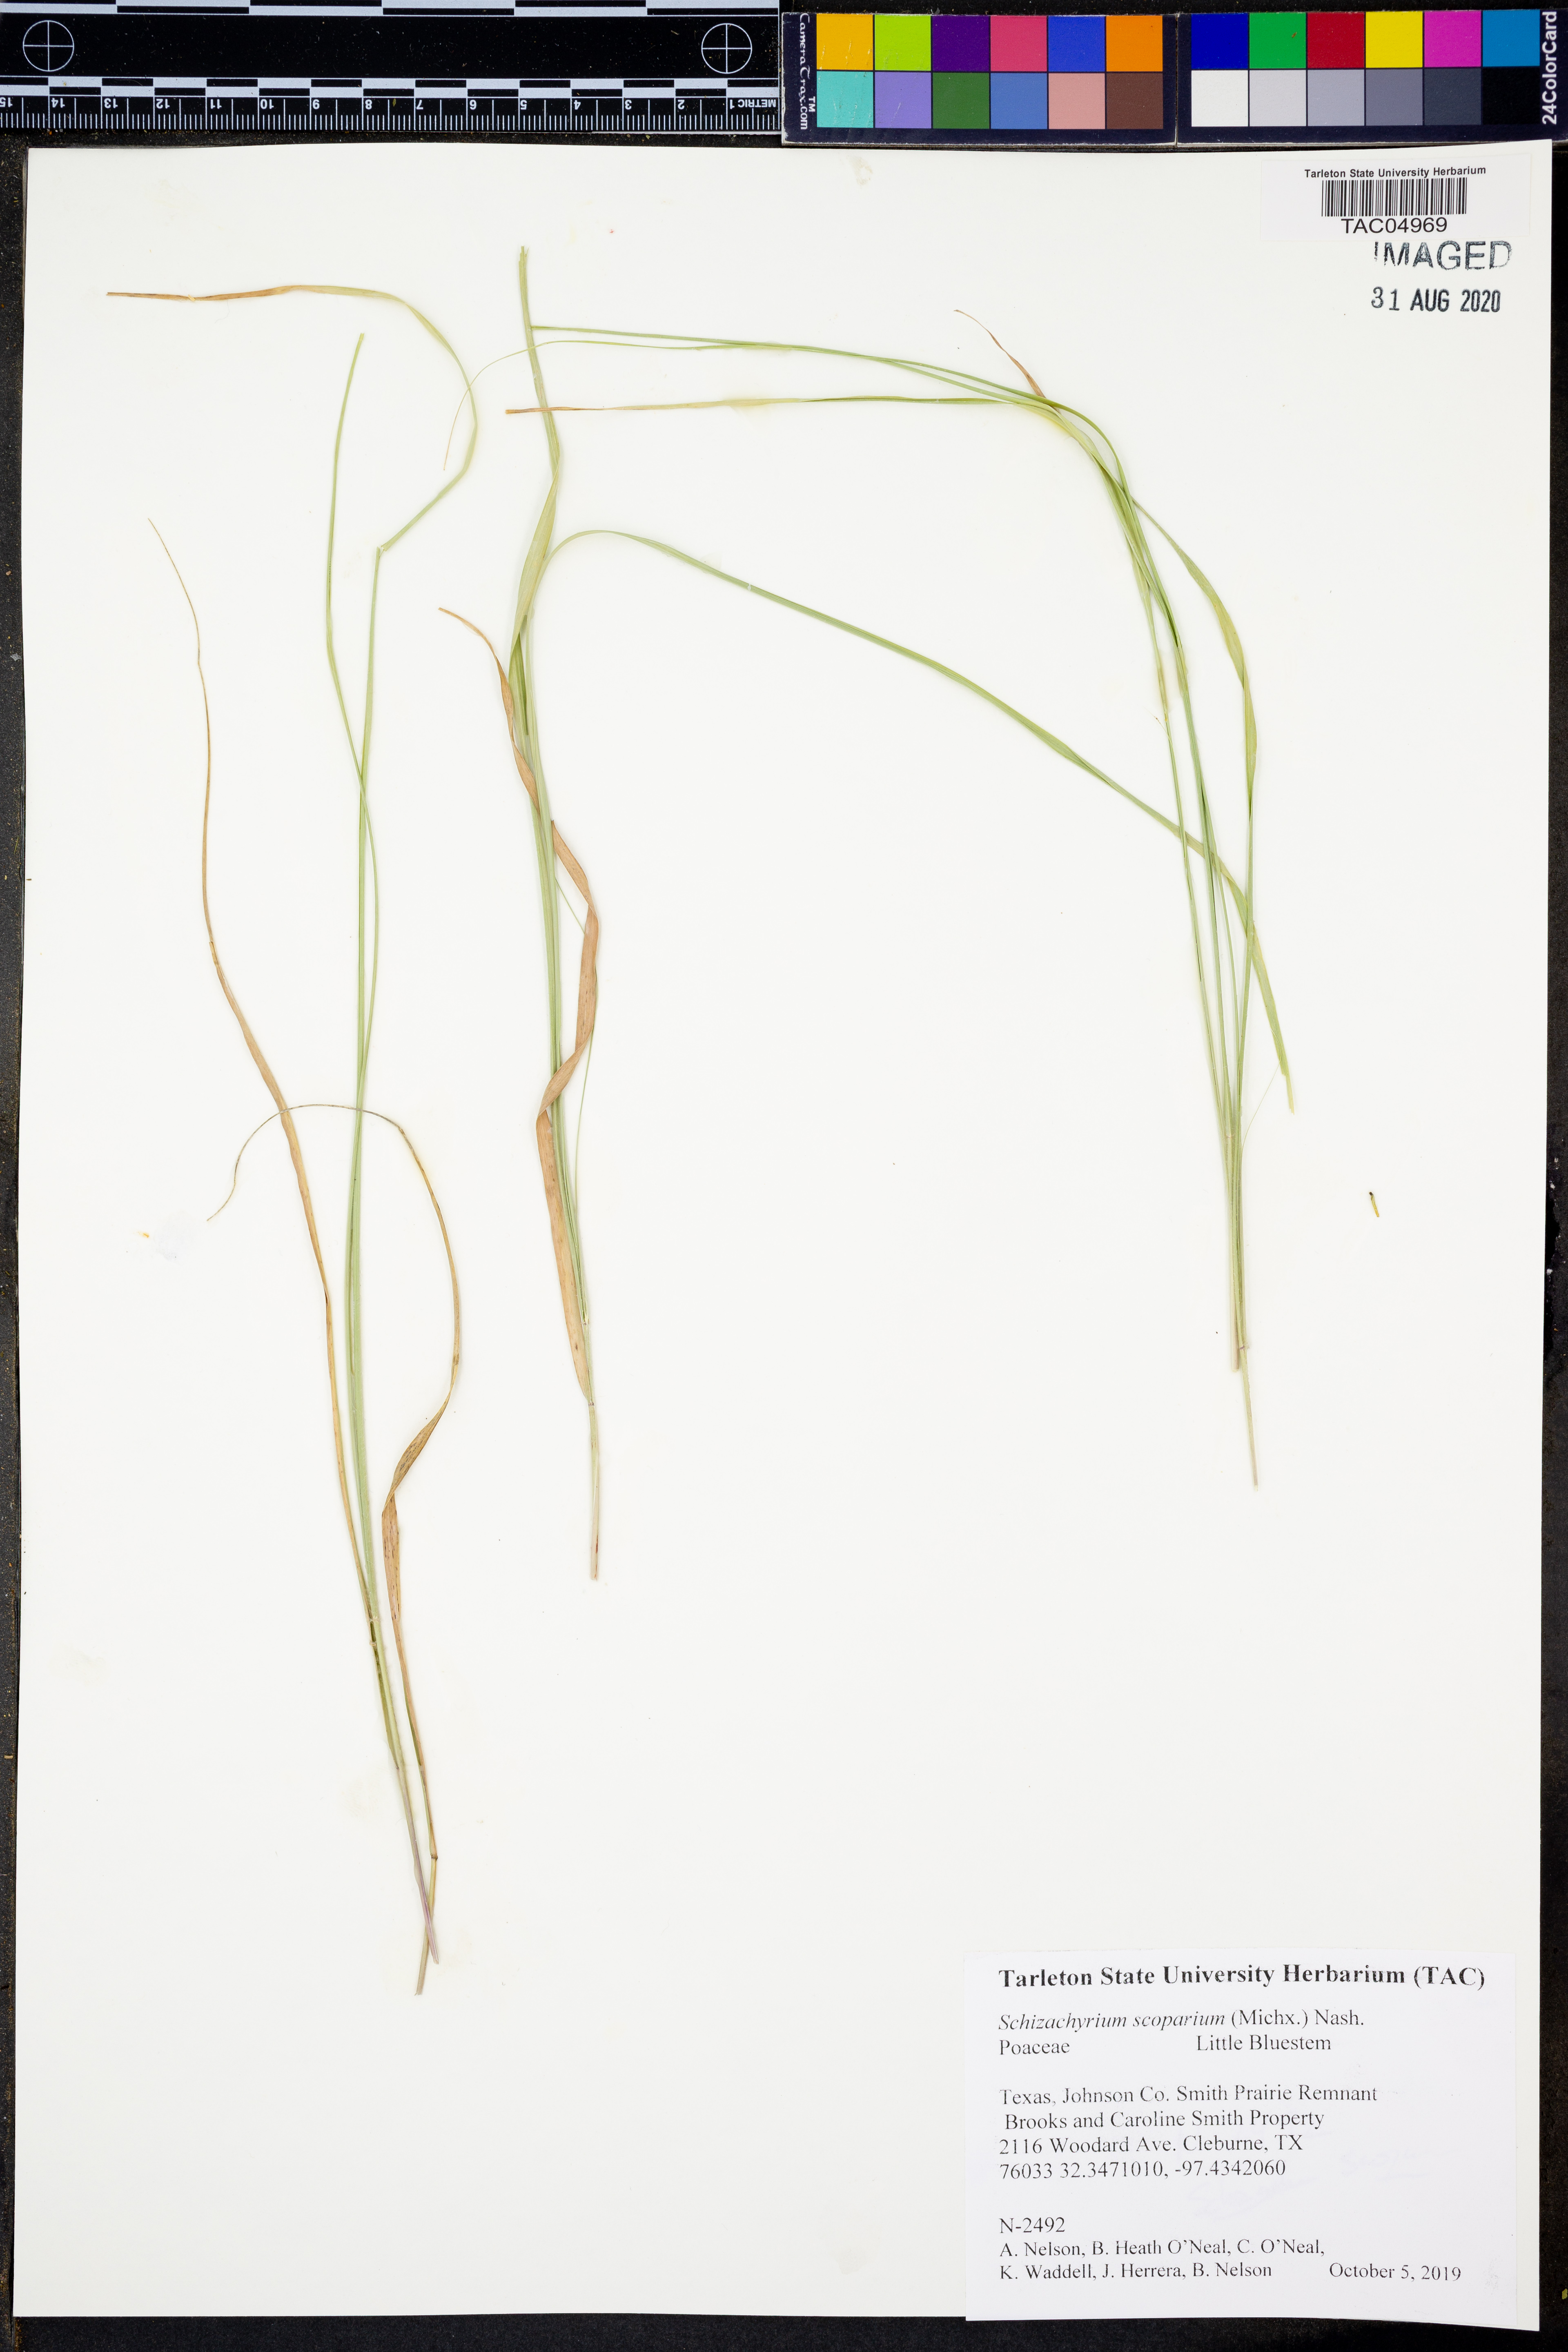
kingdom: Plantae
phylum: Tracheophyta
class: Liliopsida
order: Poales
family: Poaceae
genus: Schizachyrium
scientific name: Schizachyrium scoparium
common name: Little bluestem
